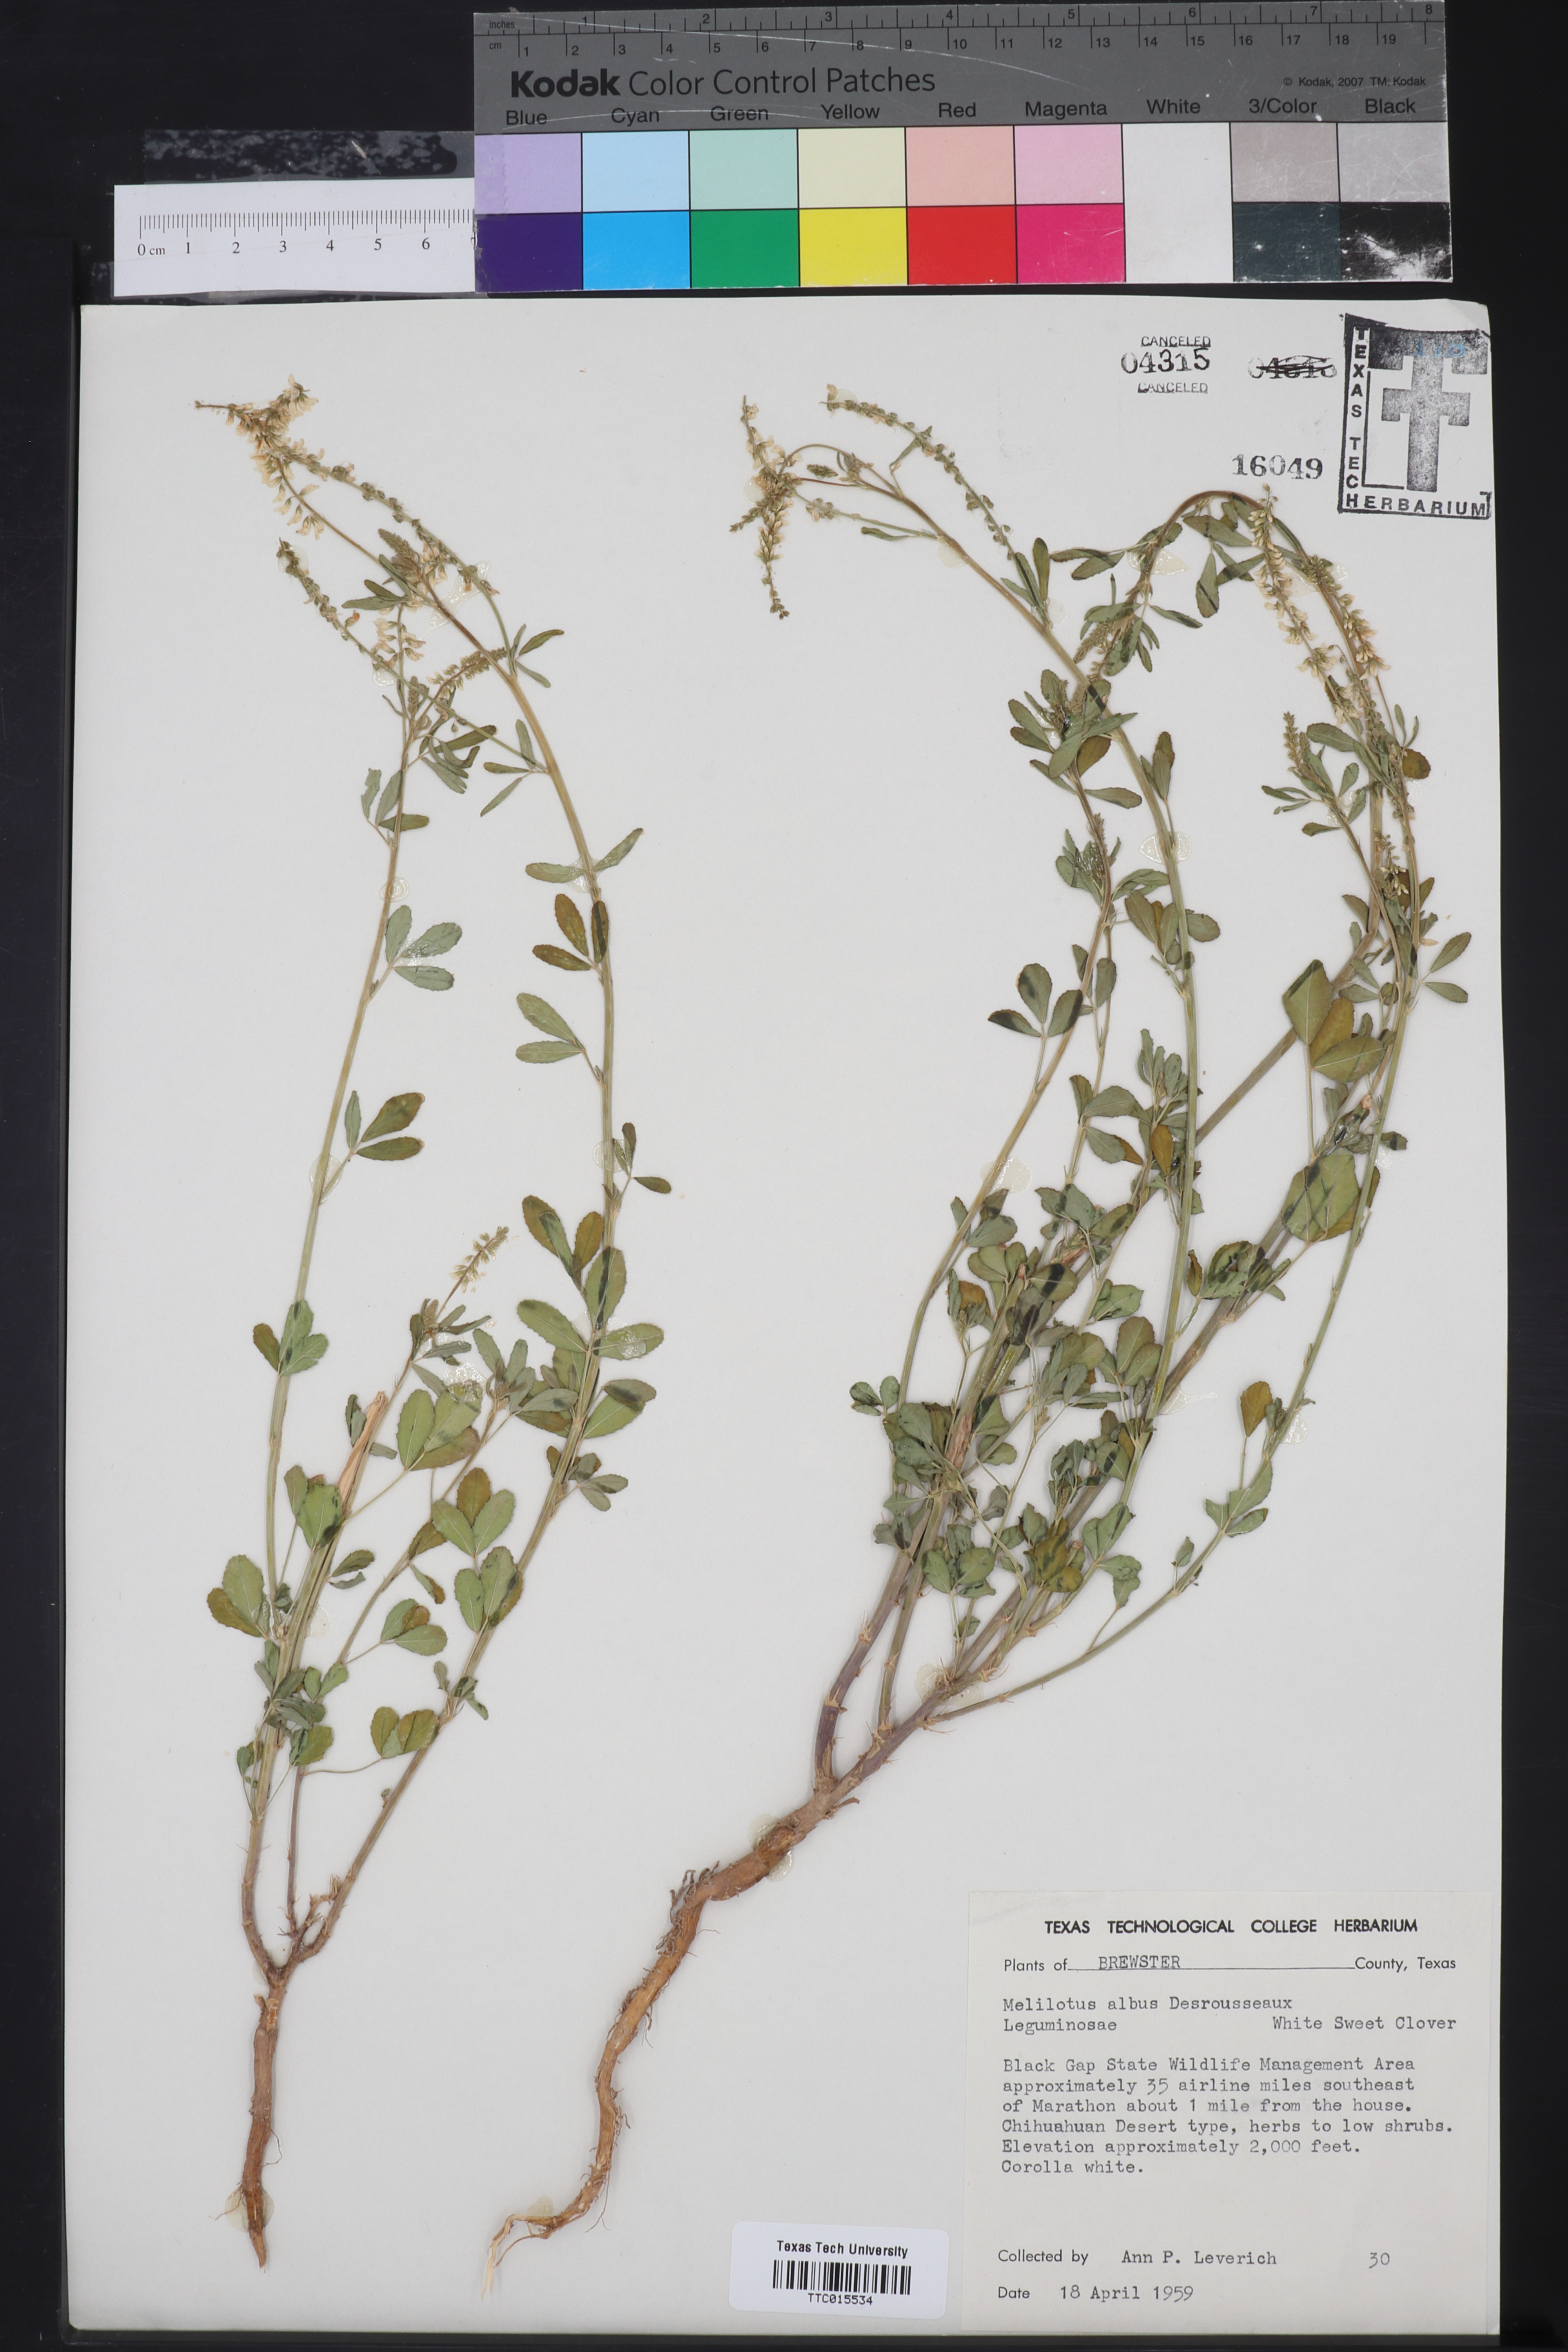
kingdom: Plantae
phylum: Tracheophyta
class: Magnoliopsida
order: Fabales
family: Fabaceae
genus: Melilotus
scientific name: Melilotus albus
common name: White melilot
